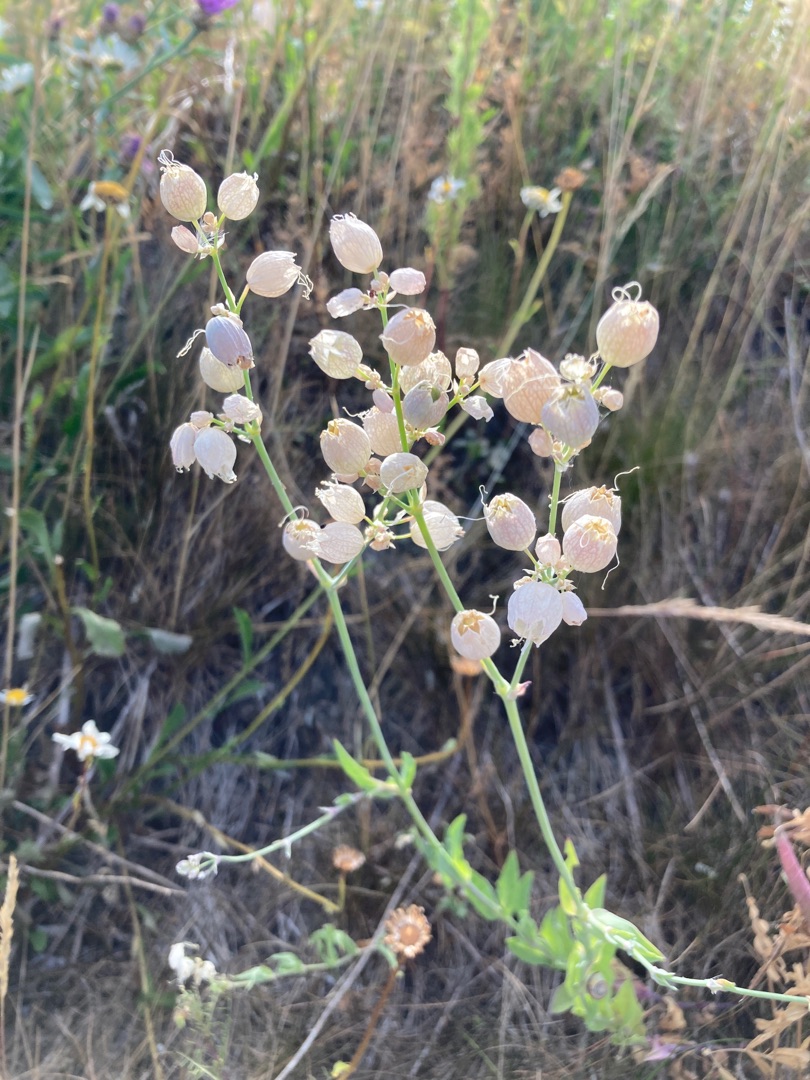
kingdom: Plantae
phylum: Tracheophyta
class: Magnoliopsida
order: Caryophyllales
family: Caryophyllaceae
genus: Silene
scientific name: Silene vulgaris
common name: Blæresmælde
